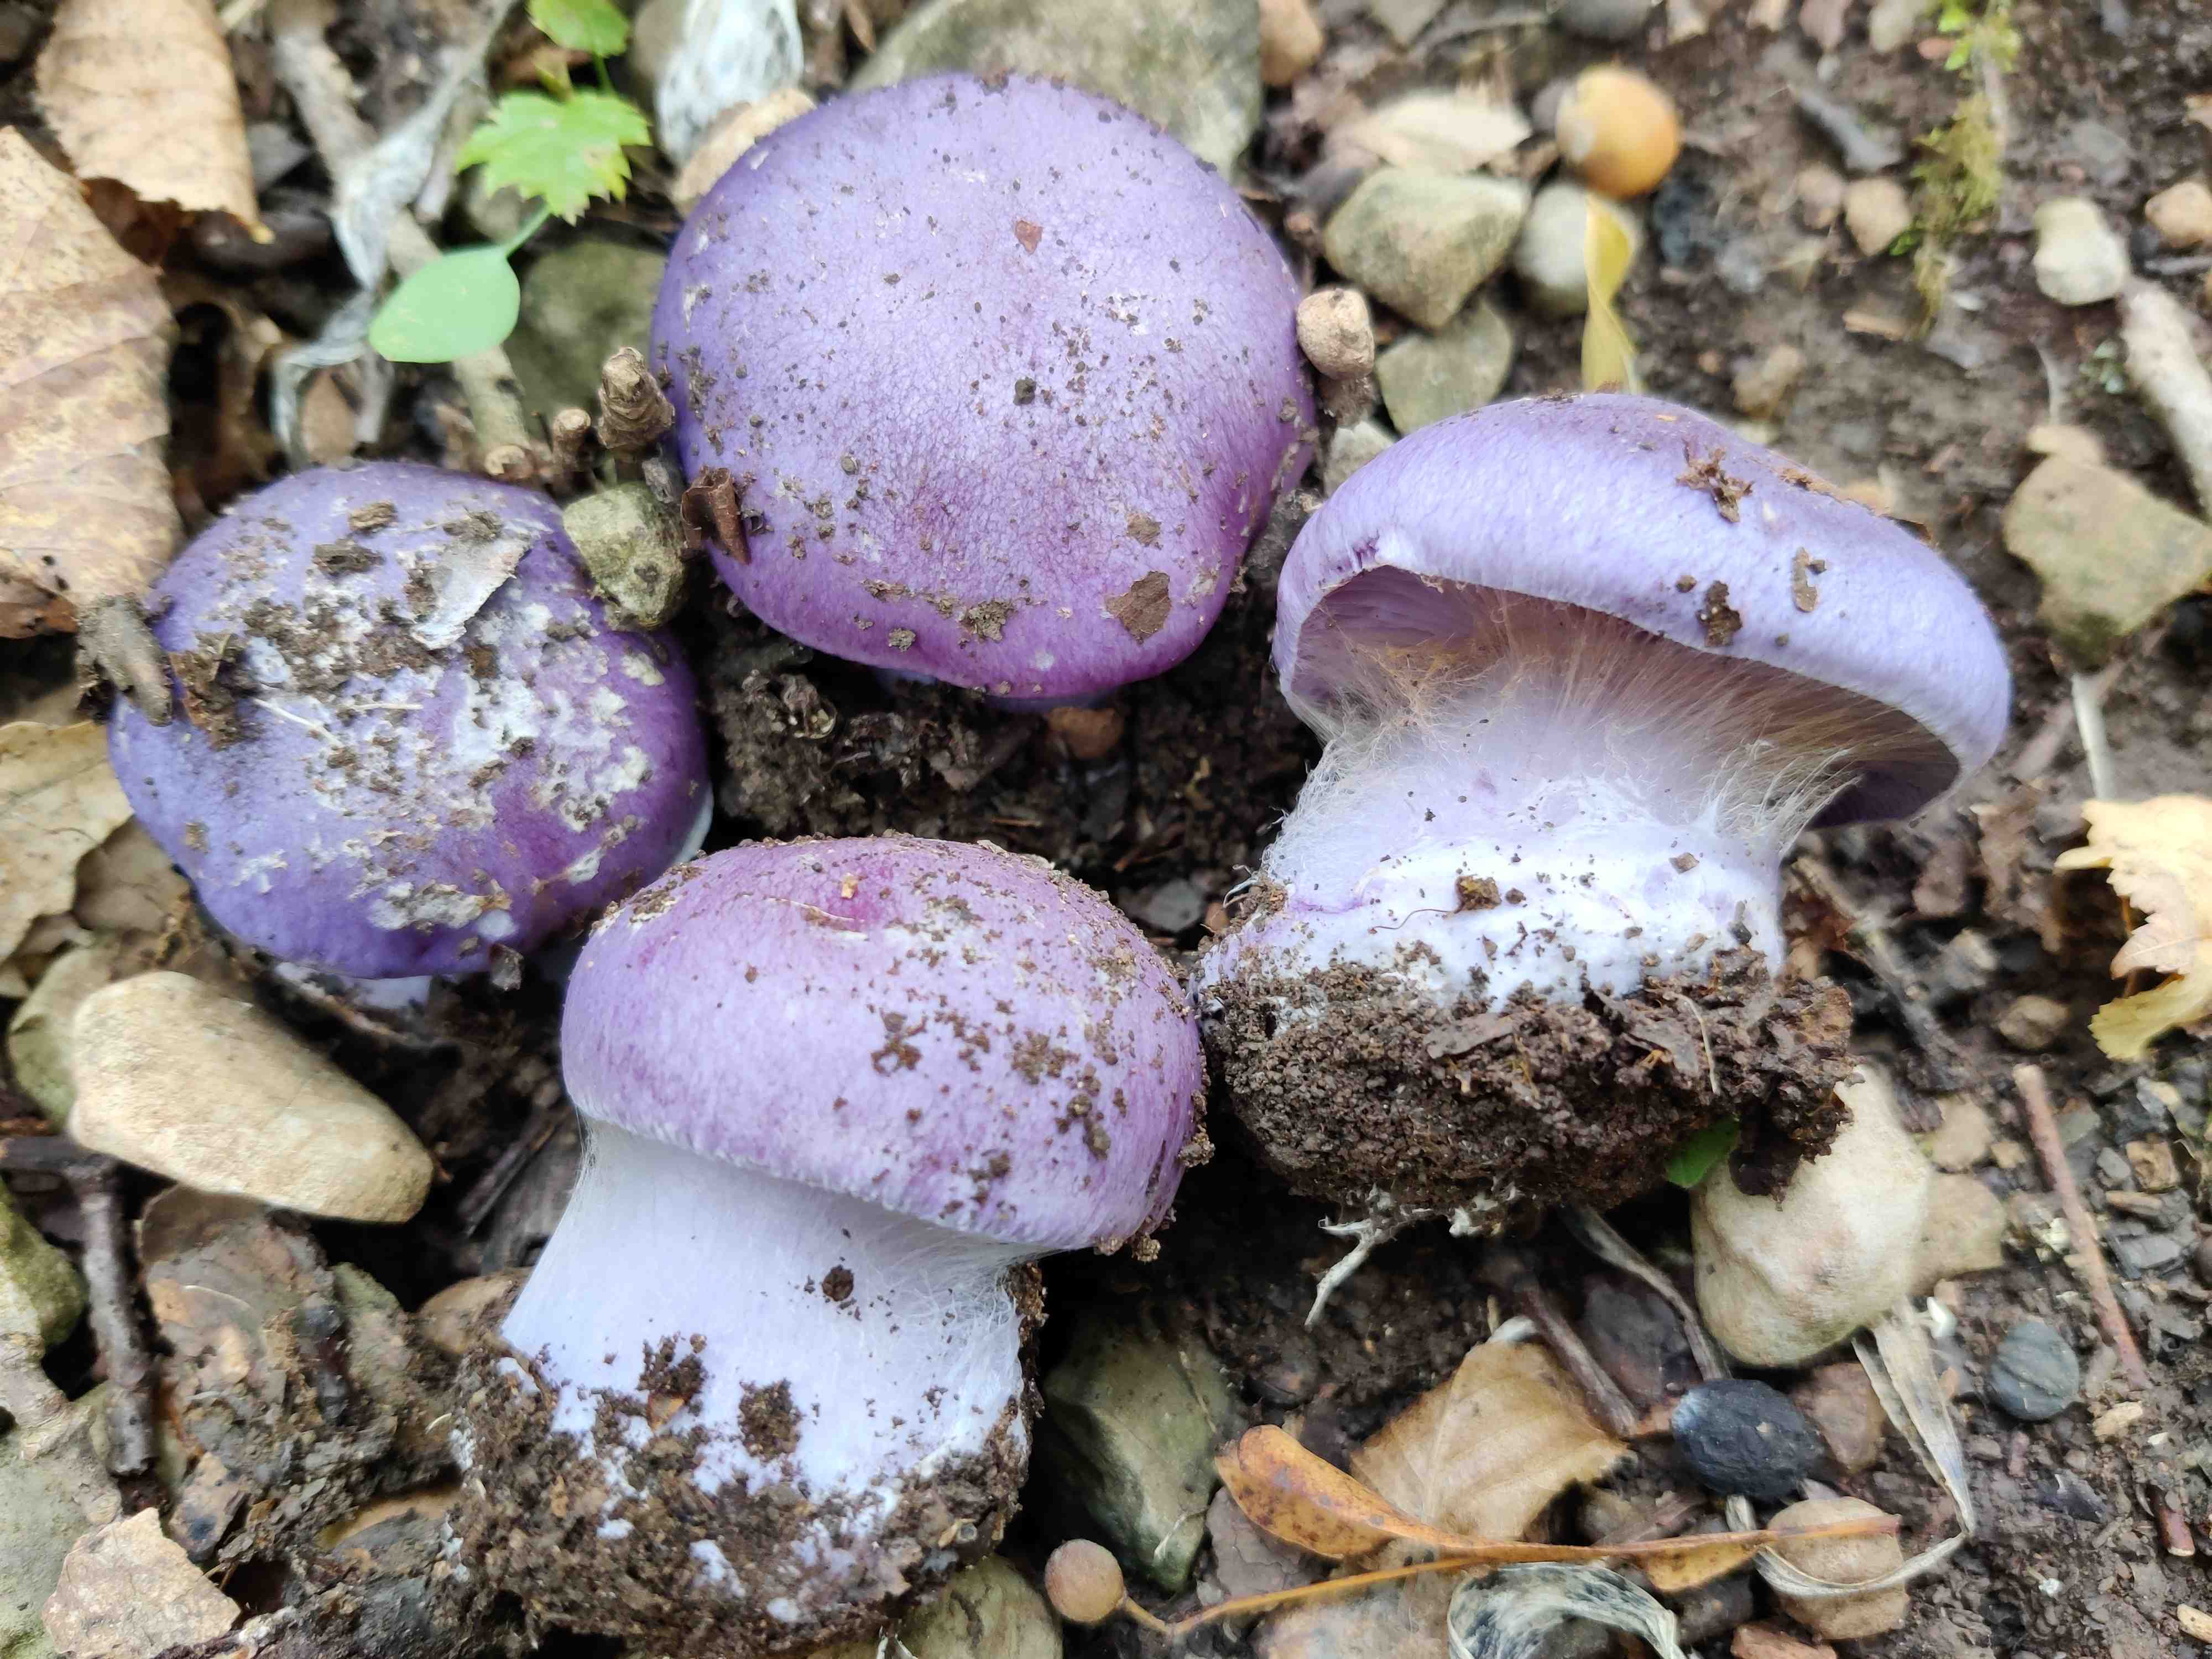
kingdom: Fungi
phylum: Basidiomycota
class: Agaricomycetes
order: Agaricales
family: Cortinariaceae
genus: Phlegmacium
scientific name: Phlegmacium eucaeruleum
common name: indigo-slørhat
